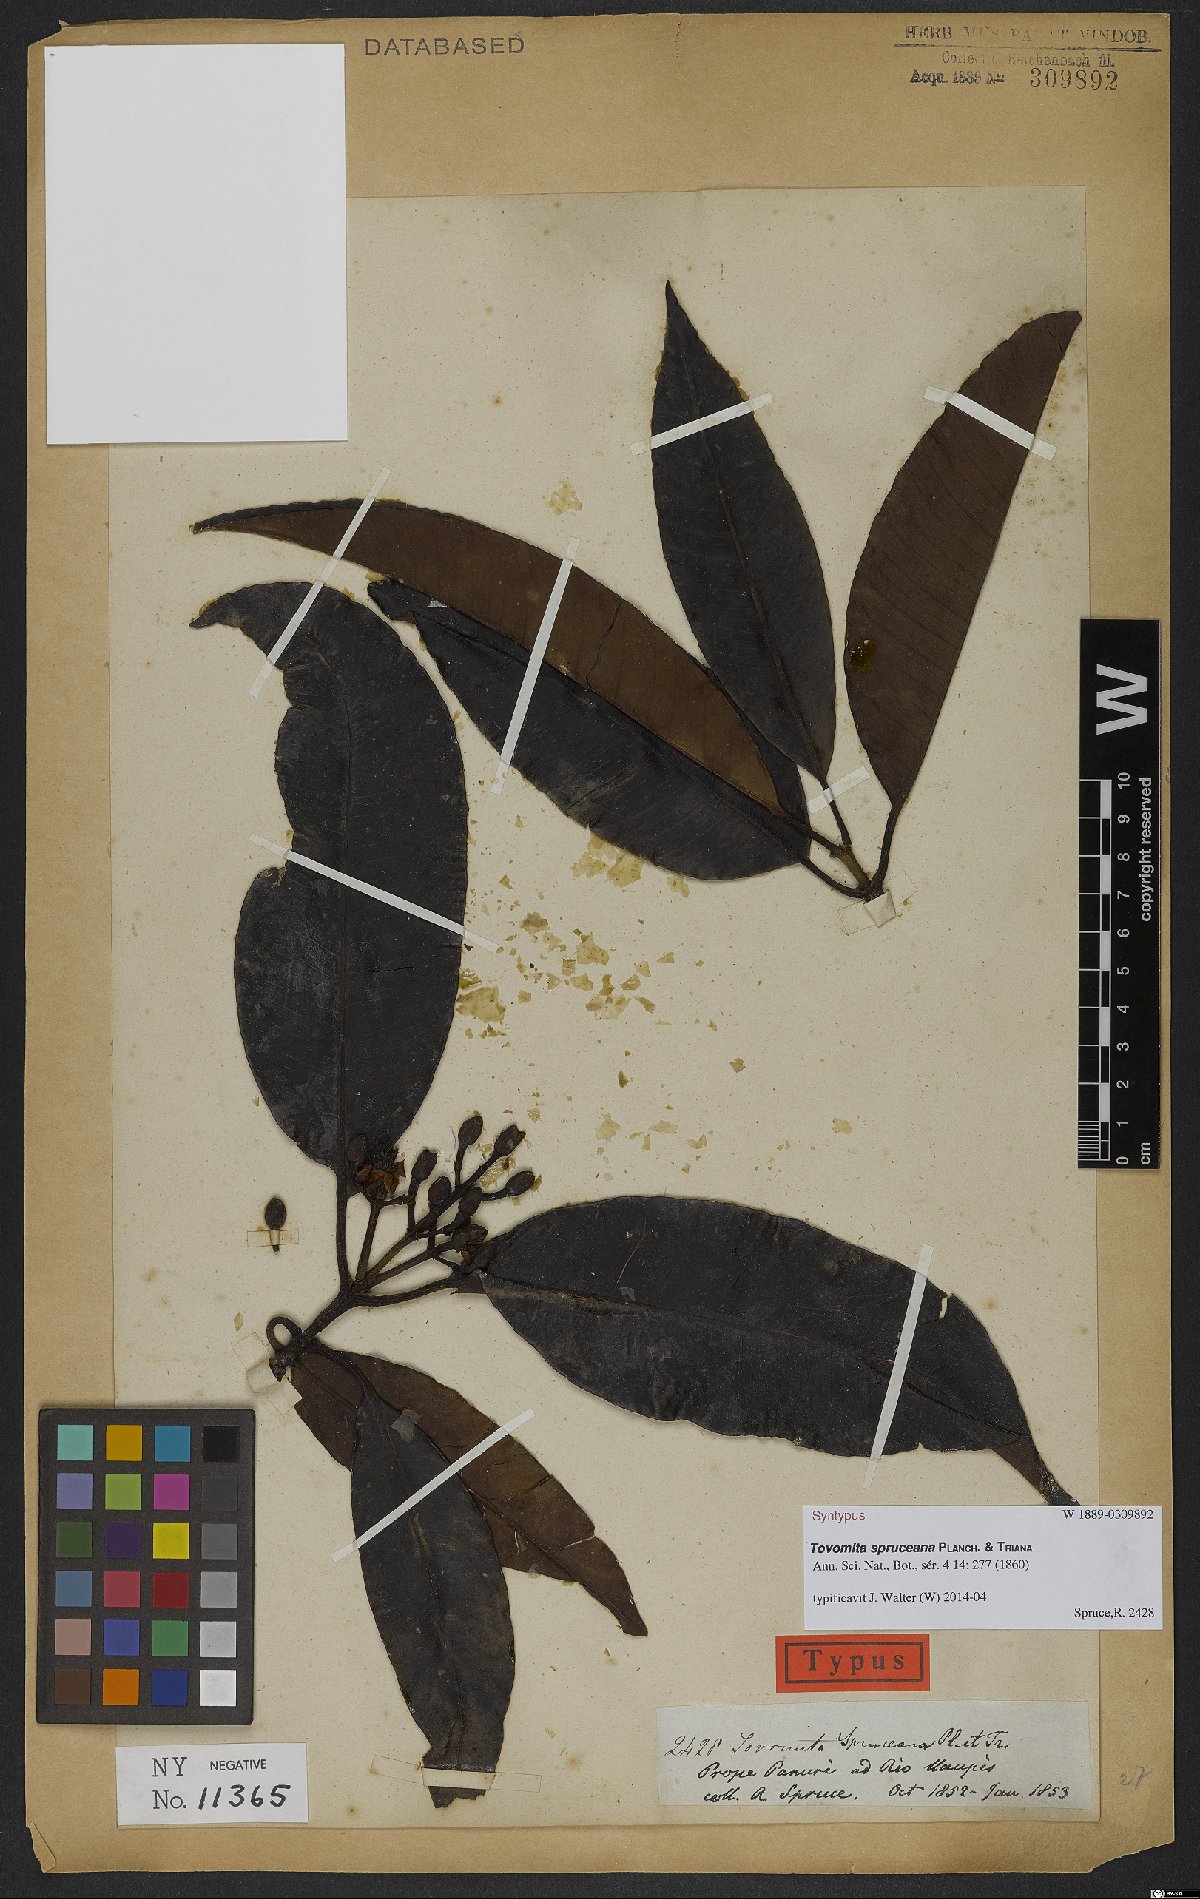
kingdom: Plantae
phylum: Tracheophyta
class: Magnoliopsida
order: Malpighiales
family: Clusiaceae
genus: Tovomita
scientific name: Tovomita spruceana
